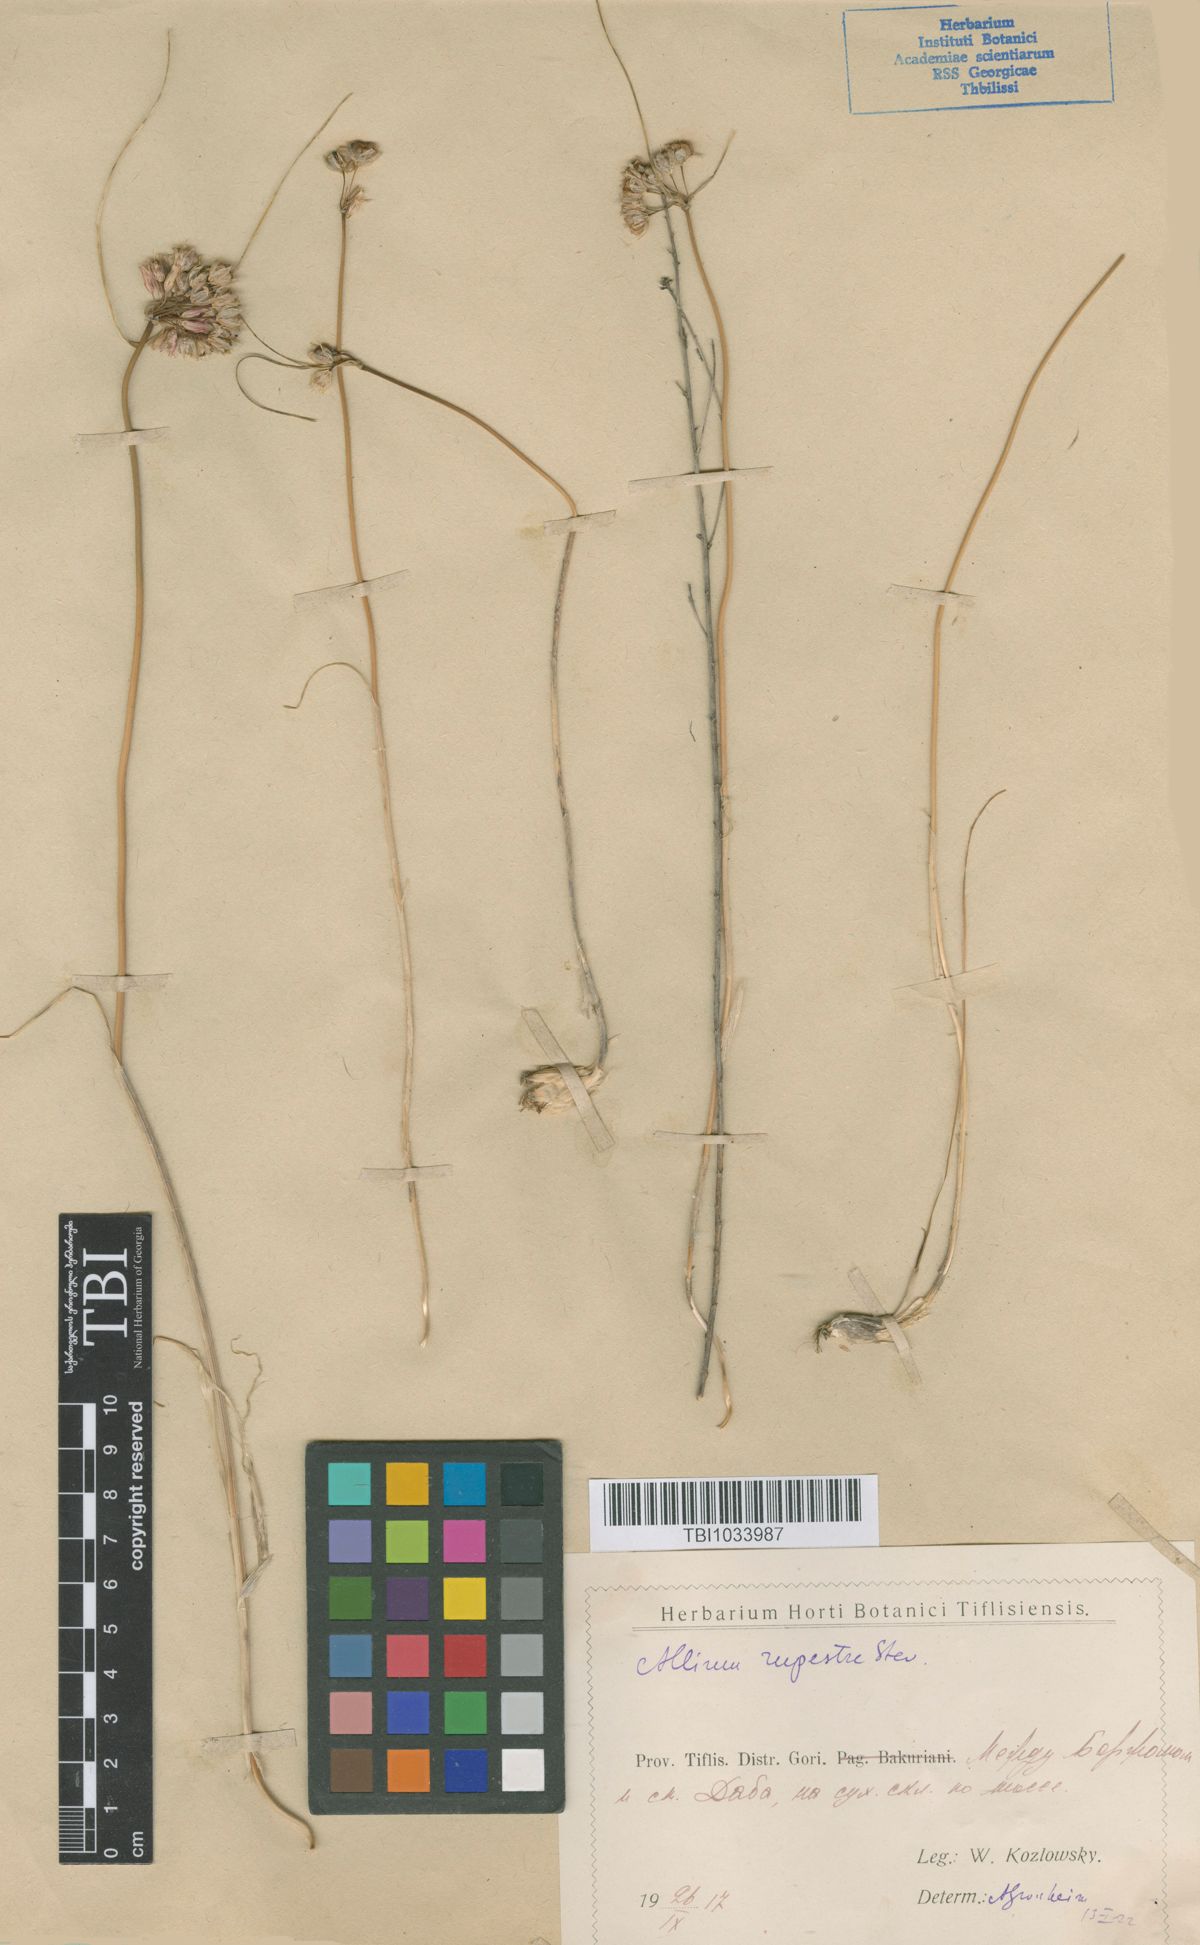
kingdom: Plantae
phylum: Tracheophyta
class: Liliopsida
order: Asparagales
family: Amaryllidaceae
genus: Allium
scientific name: Allium rupestre
